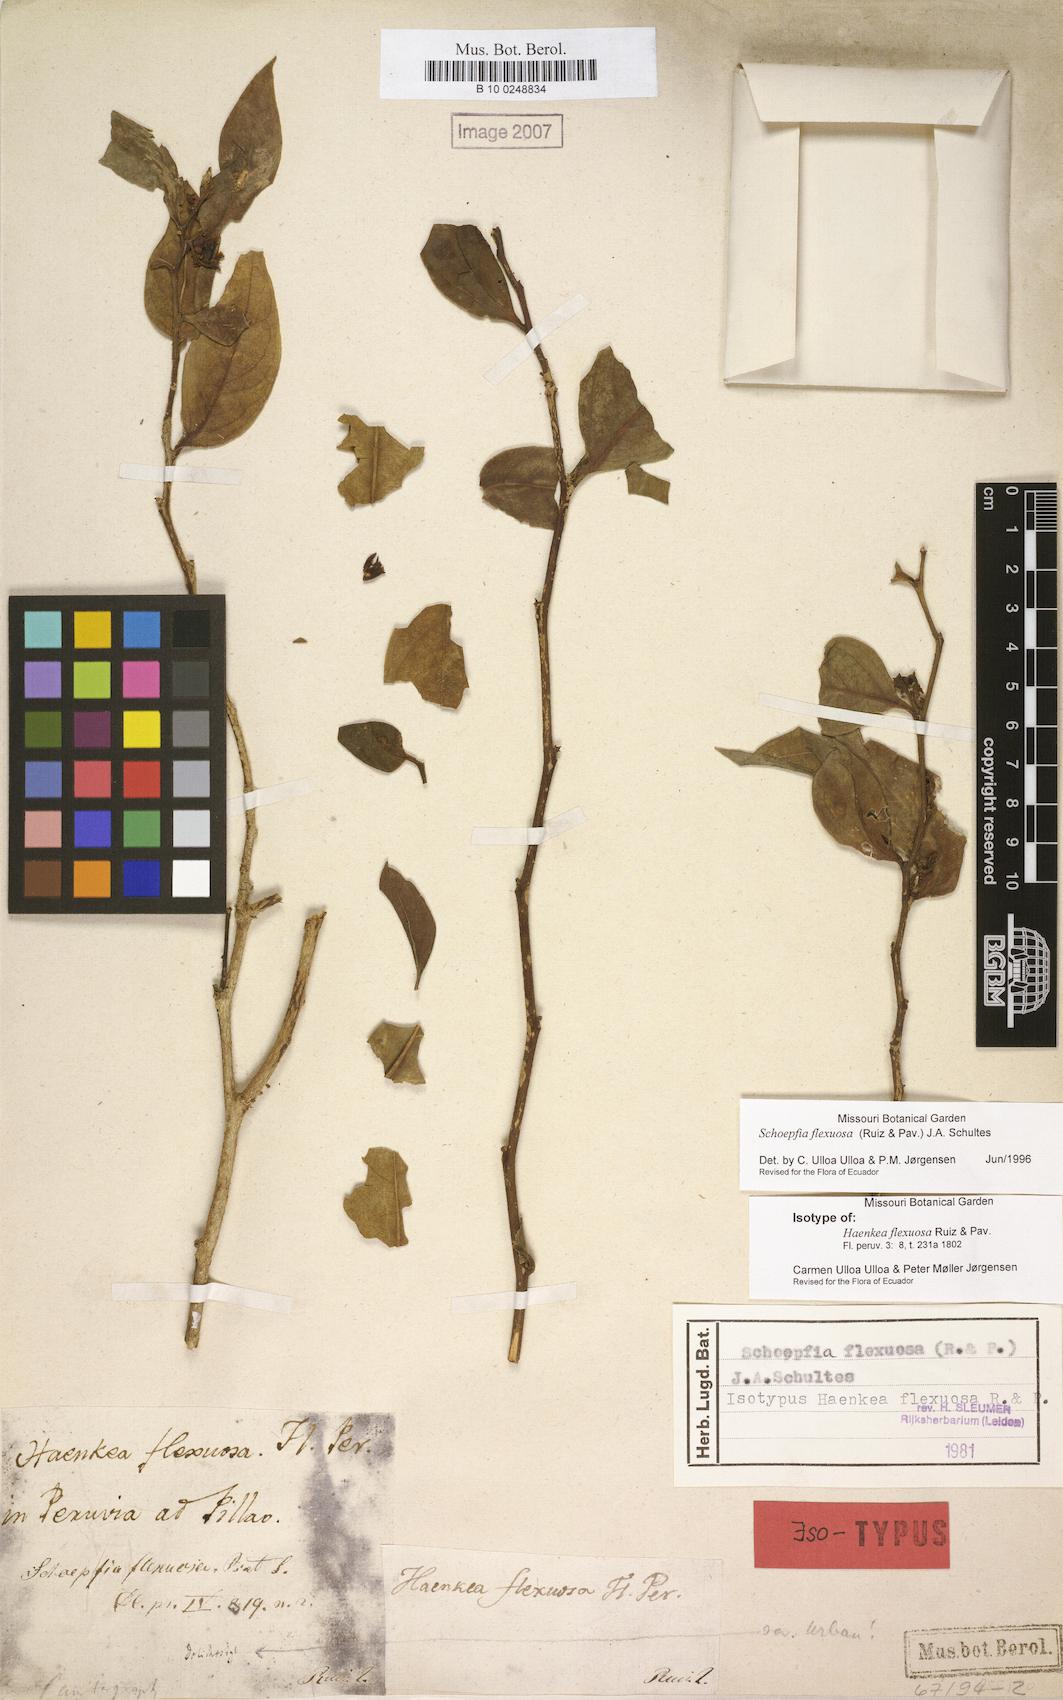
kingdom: Plantae
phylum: Tracheophyta
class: Magnoliopsida
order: Santalales
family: Schoepfiaceae
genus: Schoepfia
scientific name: Schoepfia flexuosa
